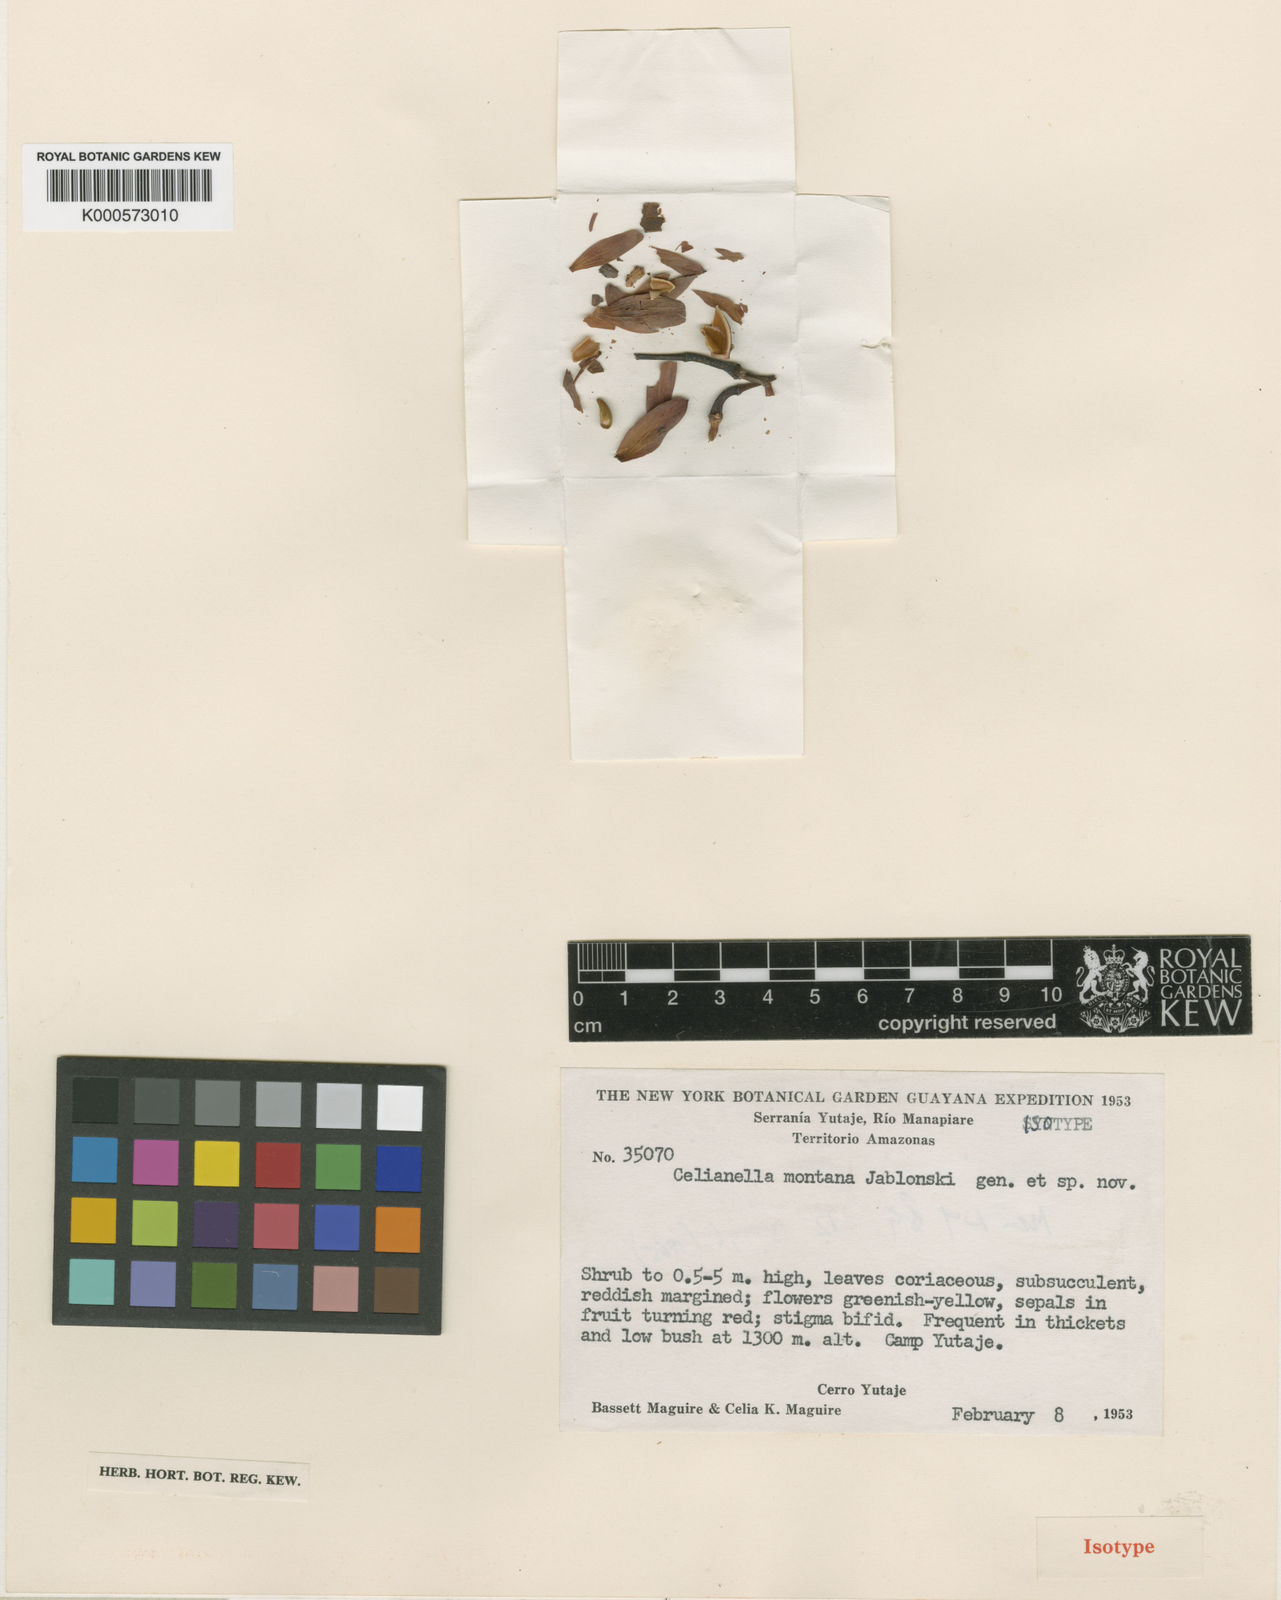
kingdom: Plantae
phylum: Tracheophyta
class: Magnoliopsida
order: Malpighiales
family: Phyllanthaceae
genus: Celianella
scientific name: Celianella montana
